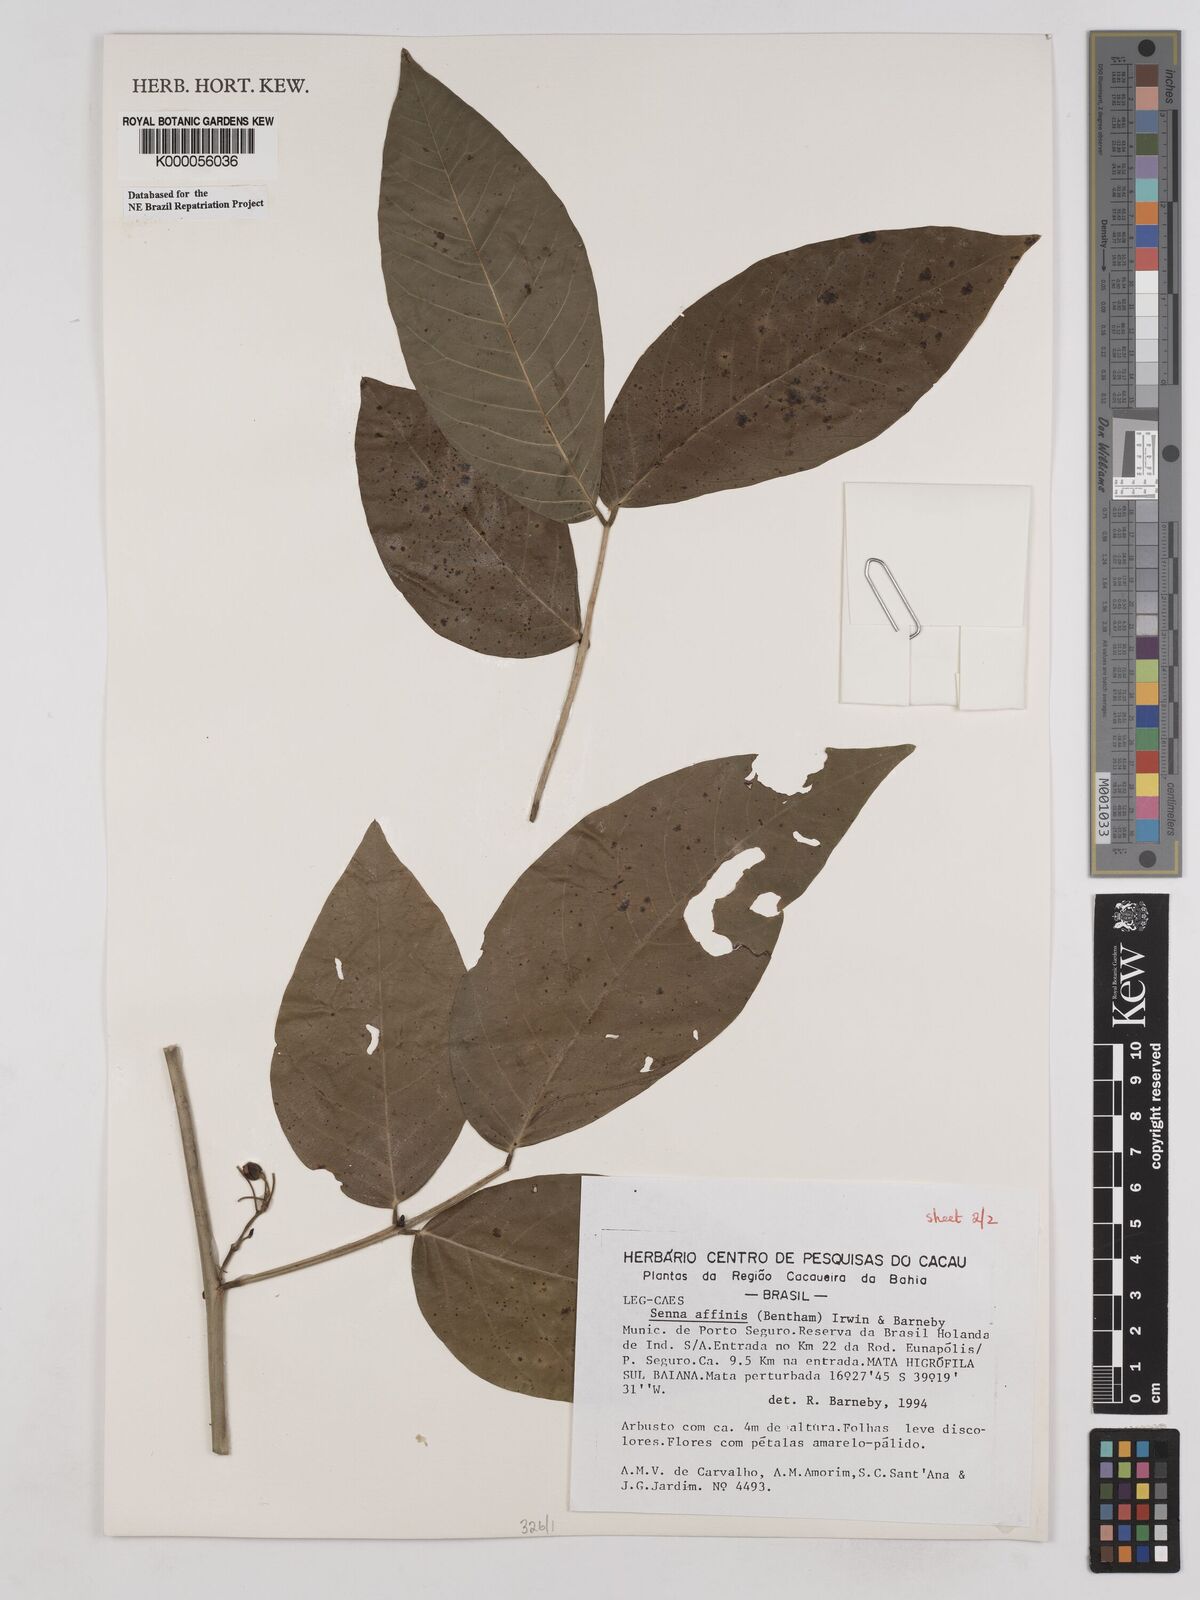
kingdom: Plantae
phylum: Tracheophyta
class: Magnoliopsida
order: Fabales
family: Fabaceae
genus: Senna
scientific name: Senna affinis
